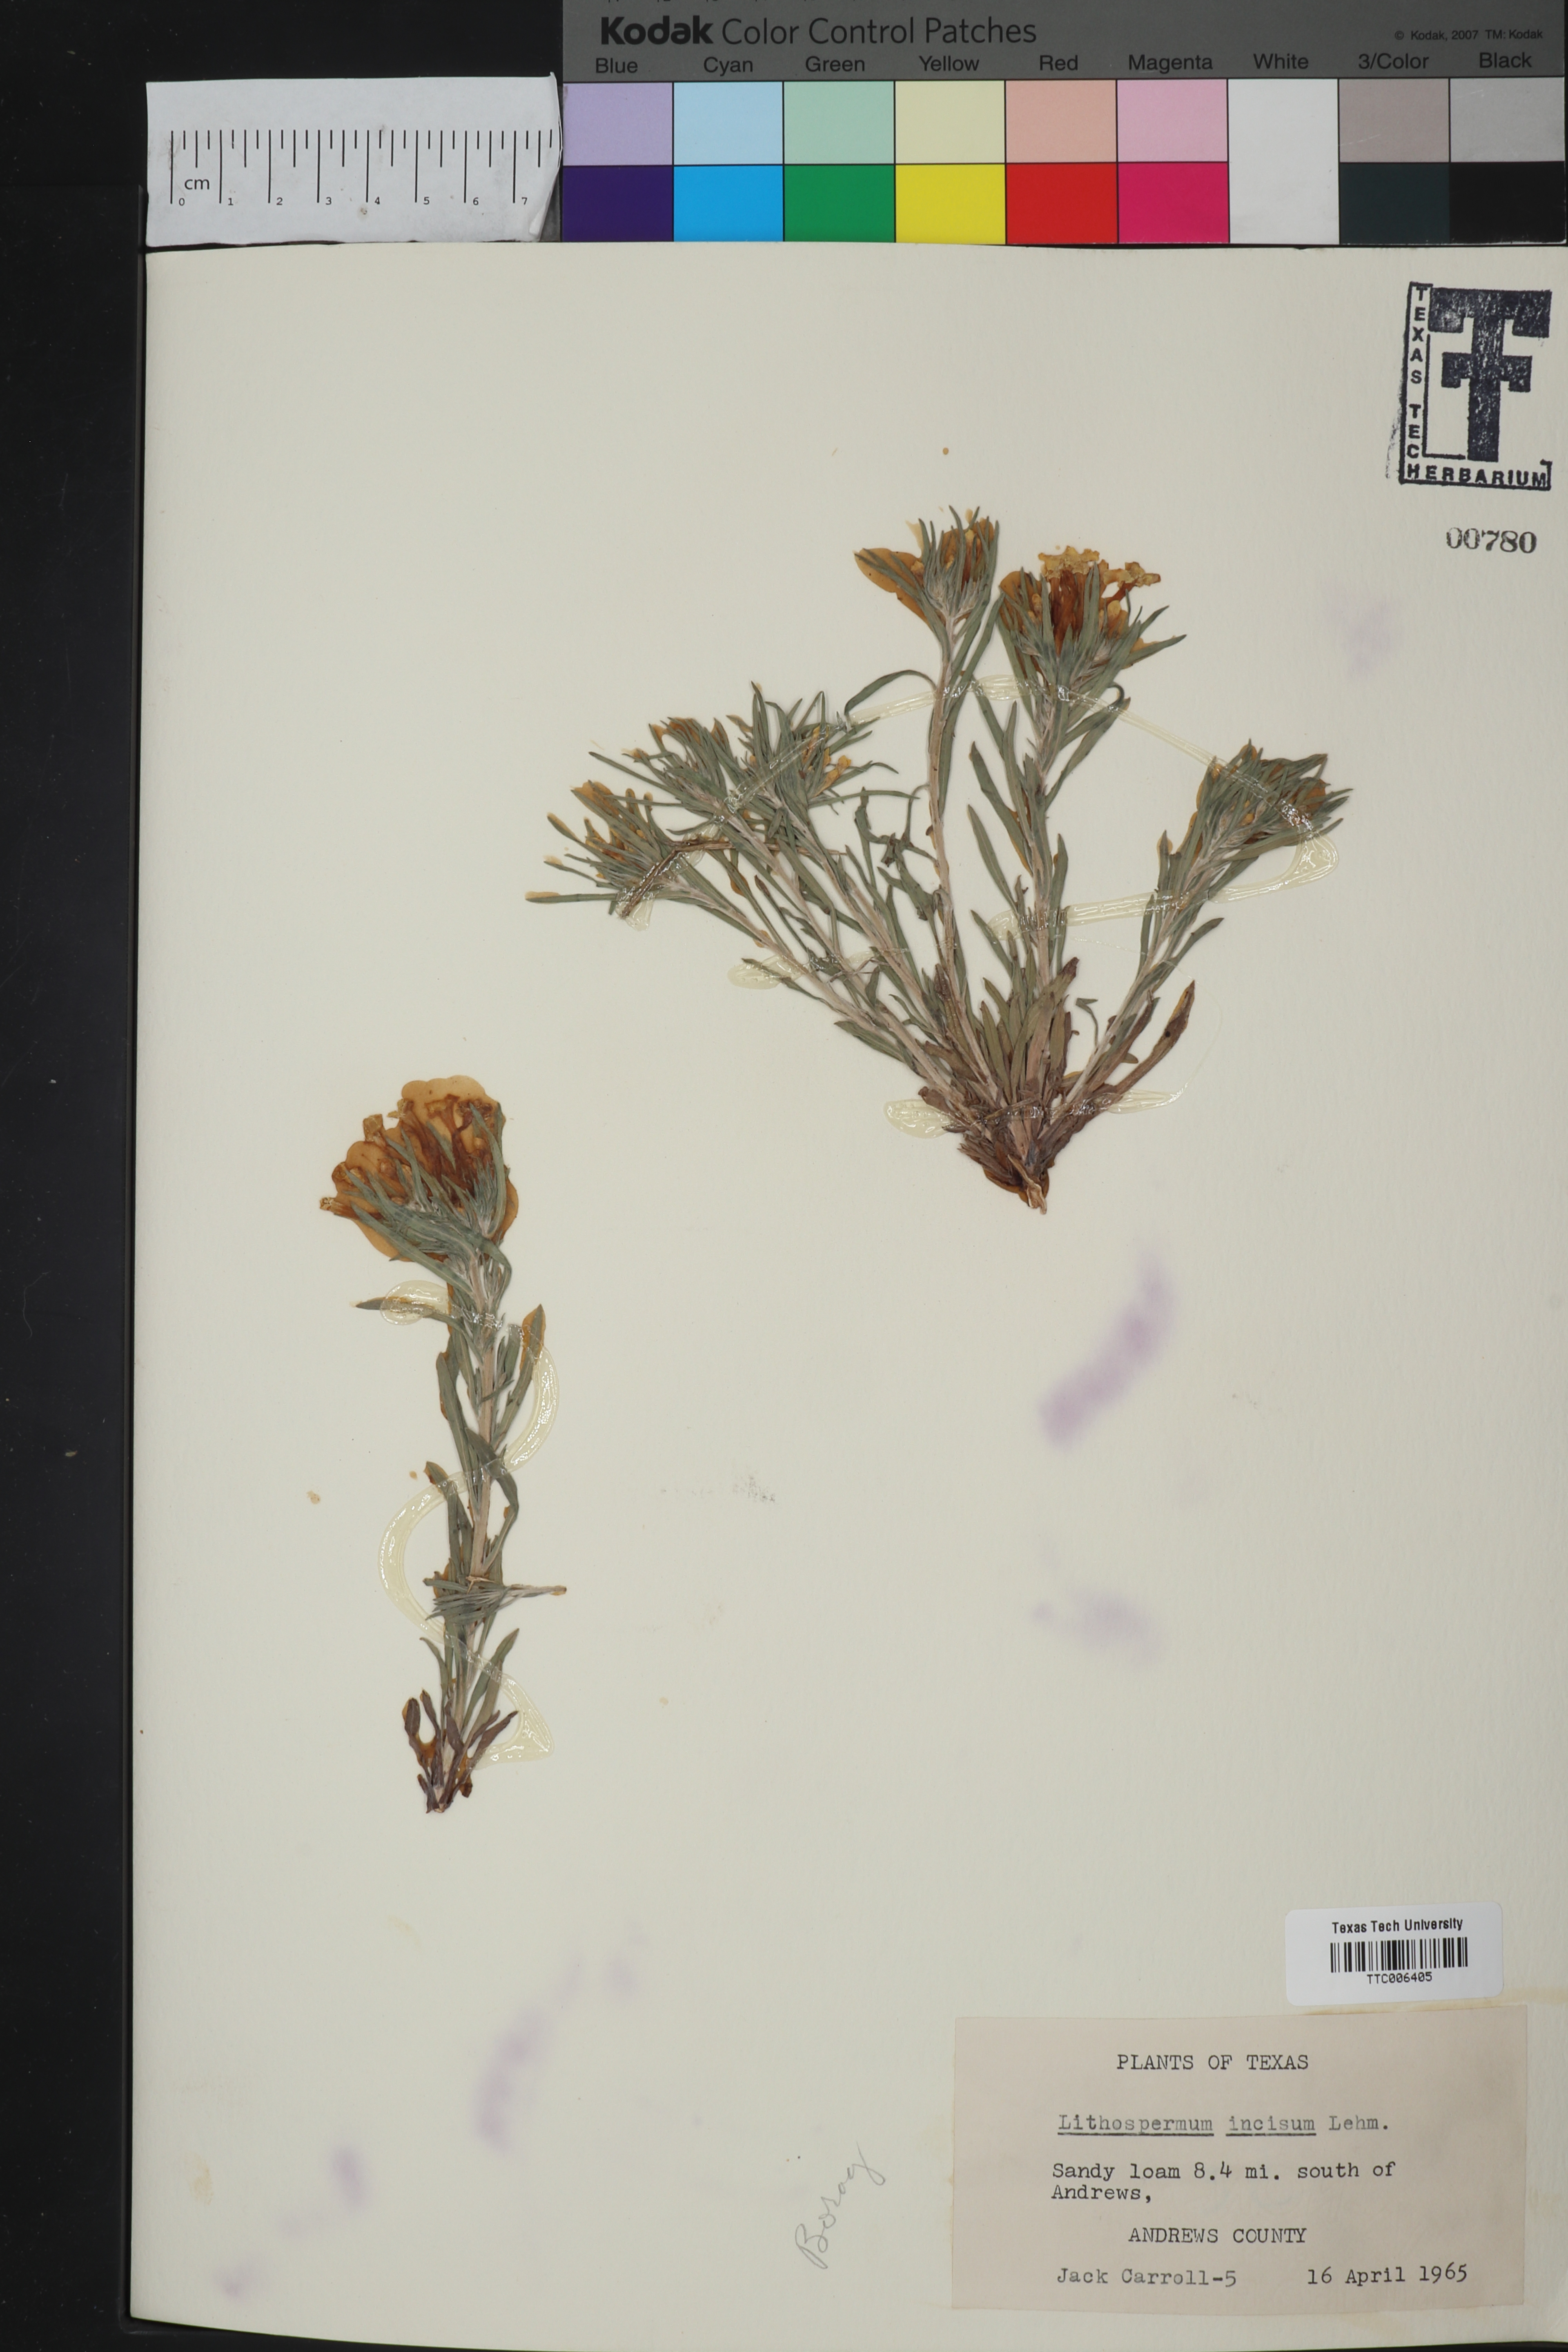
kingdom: Plantae
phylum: Tracheophyta
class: Magnoliopsida
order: Boraginales
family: Boraginaceae
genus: Lithospermum
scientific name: Lithospermum incisum
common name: Fringed gromwell
